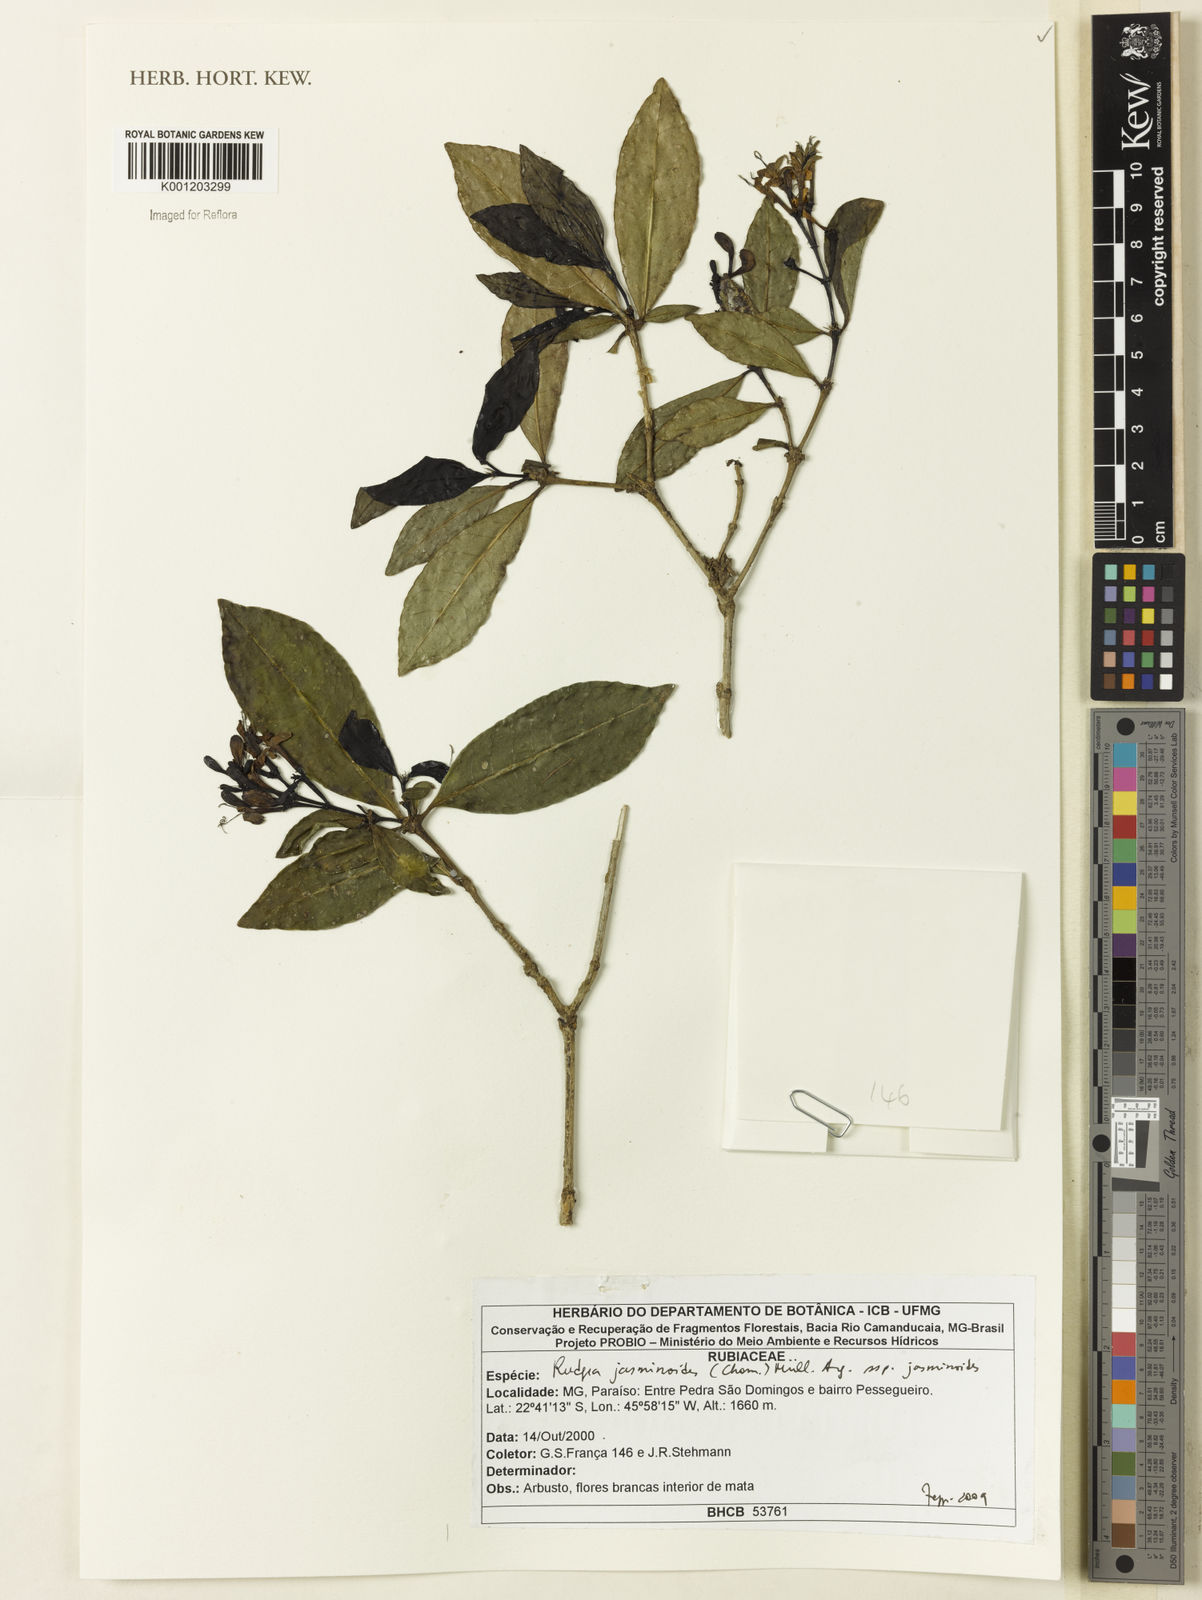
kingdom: Plantae
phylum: Tracheophyta
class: Magnoliopsida
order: Gentianales
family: Rubiaceae
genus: Rudgea
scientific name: Rudgea
